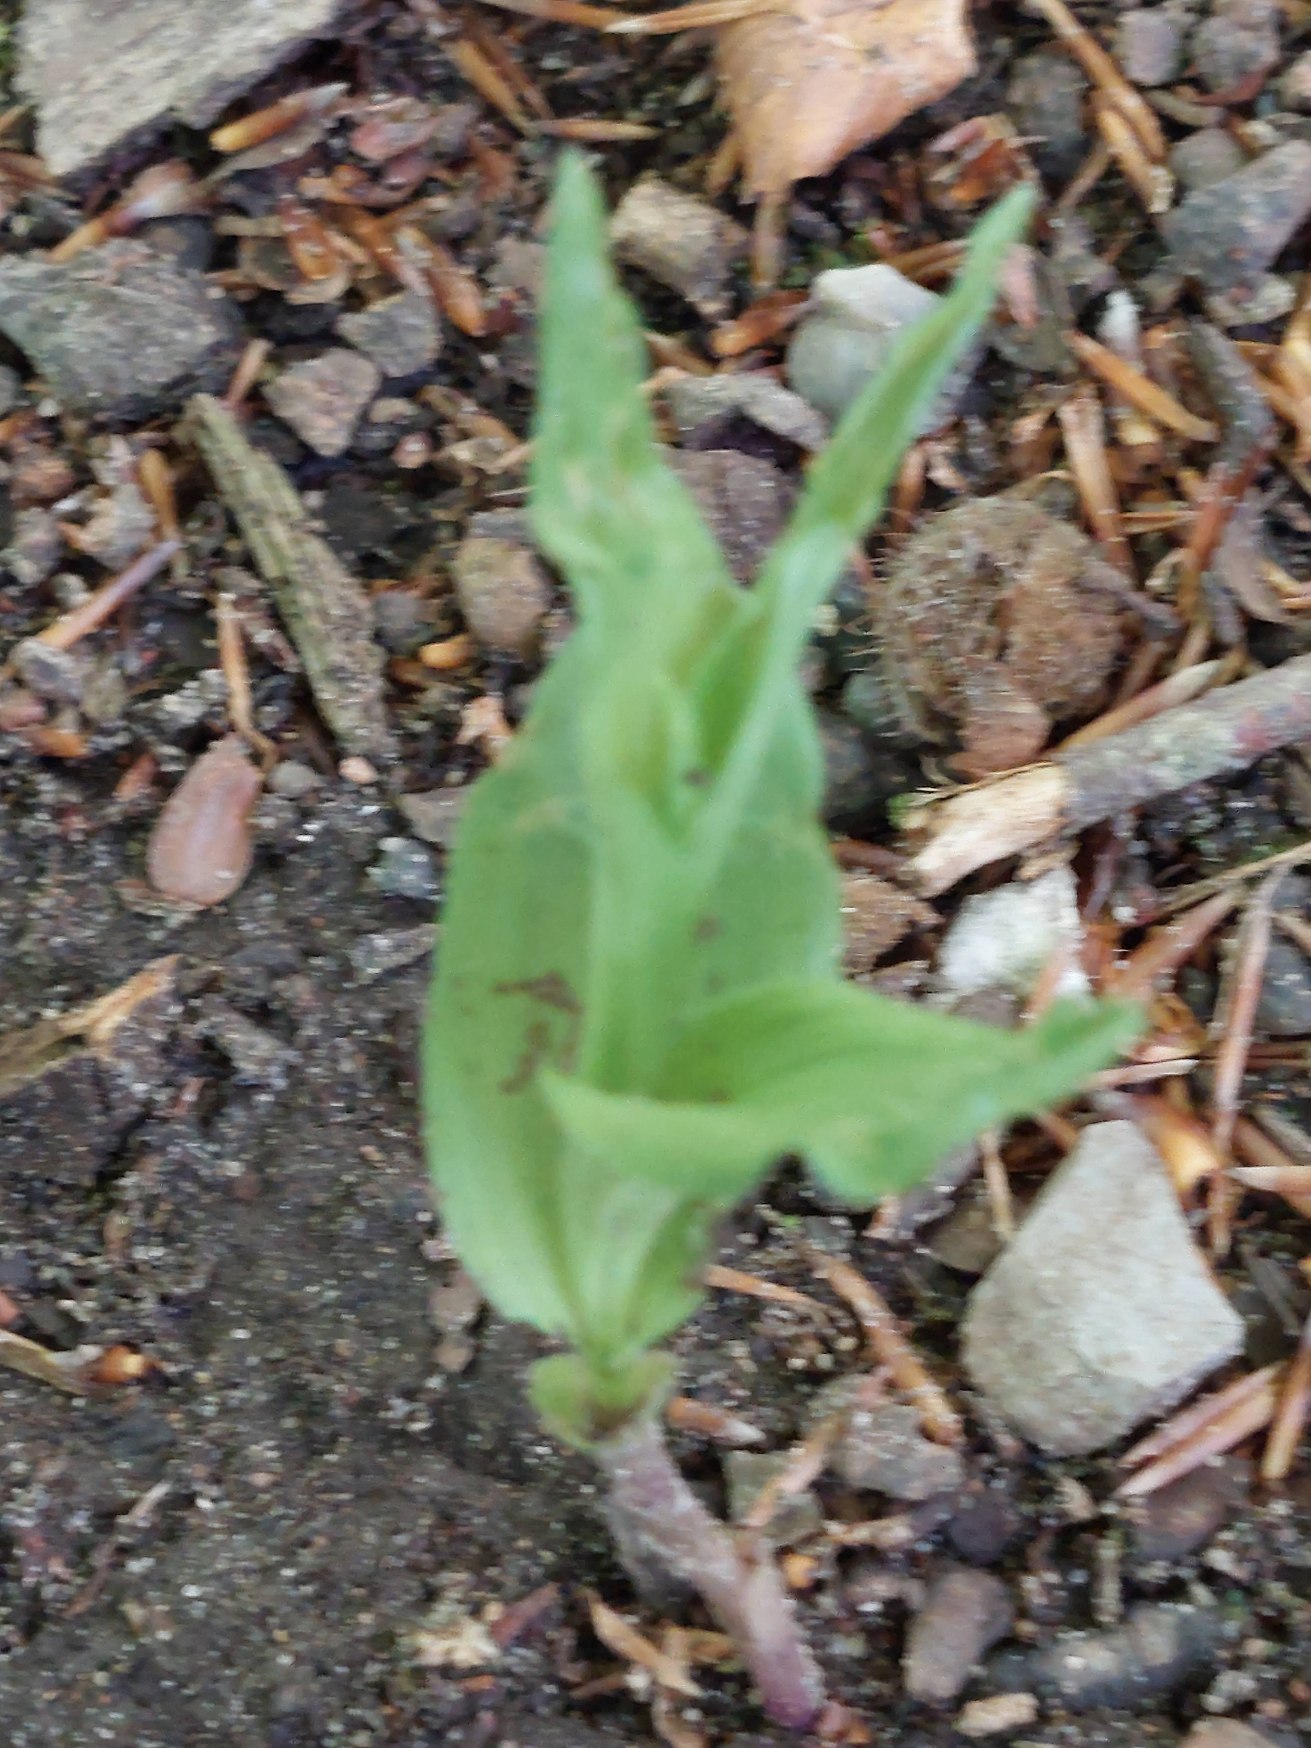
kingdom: Plantae
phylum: Tracheophyta
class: Liliopsida
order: Asparagales
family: Orchidaceae
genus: Epipactis
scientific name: Epipactis helleborine
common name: Skov-hullæbe
